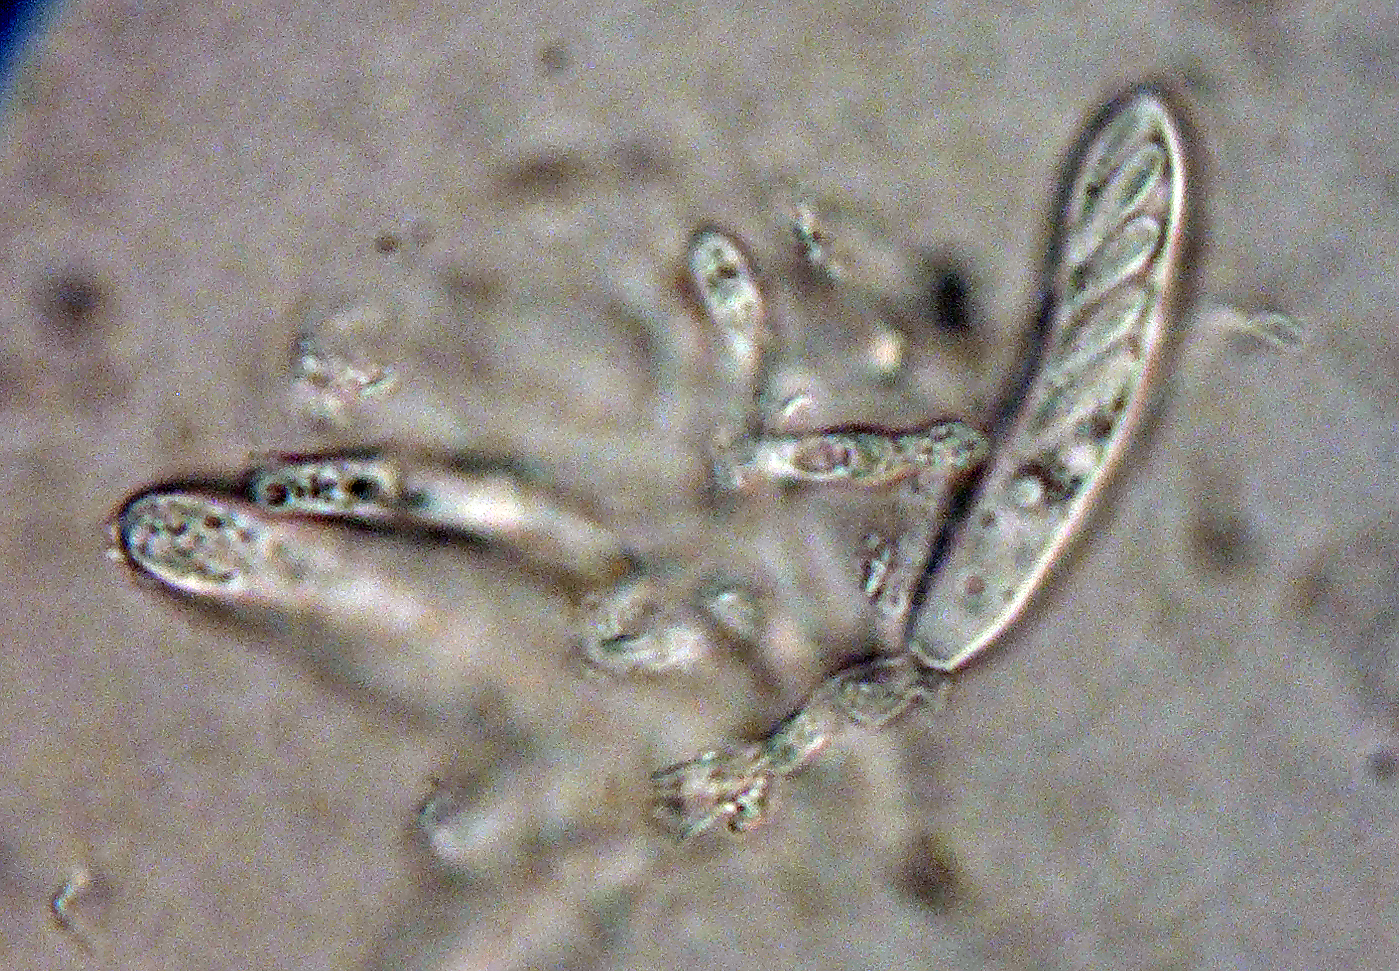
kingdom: Fungi
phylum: Ascomycota
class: Leotiomycetes
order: Helotiales
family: Pezizellaceae
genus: Psilachnum
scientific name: Psilachnum pteridigenum
